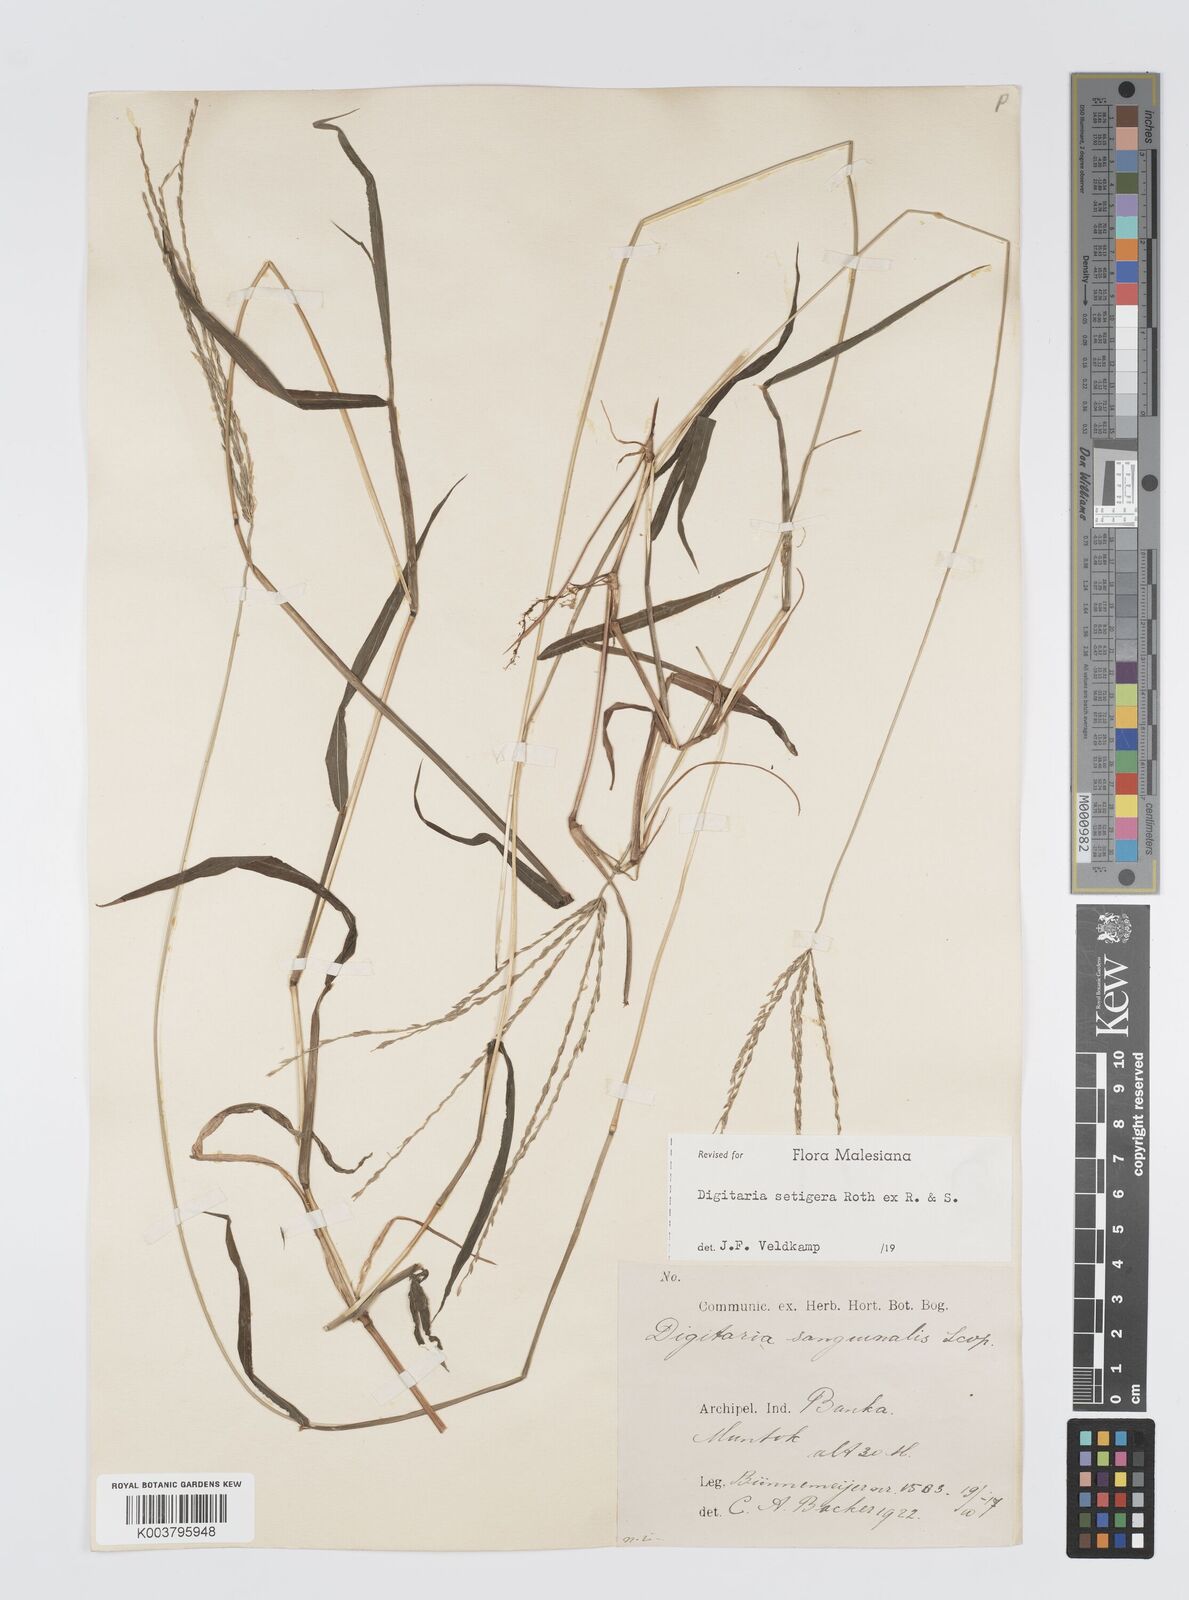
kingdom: Plantae
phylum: Tracheophyta
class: Liliopsida
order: Poales
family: Poaceae
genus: Digitaria
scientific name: Digitaria setigera
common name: East indian crabgrass
